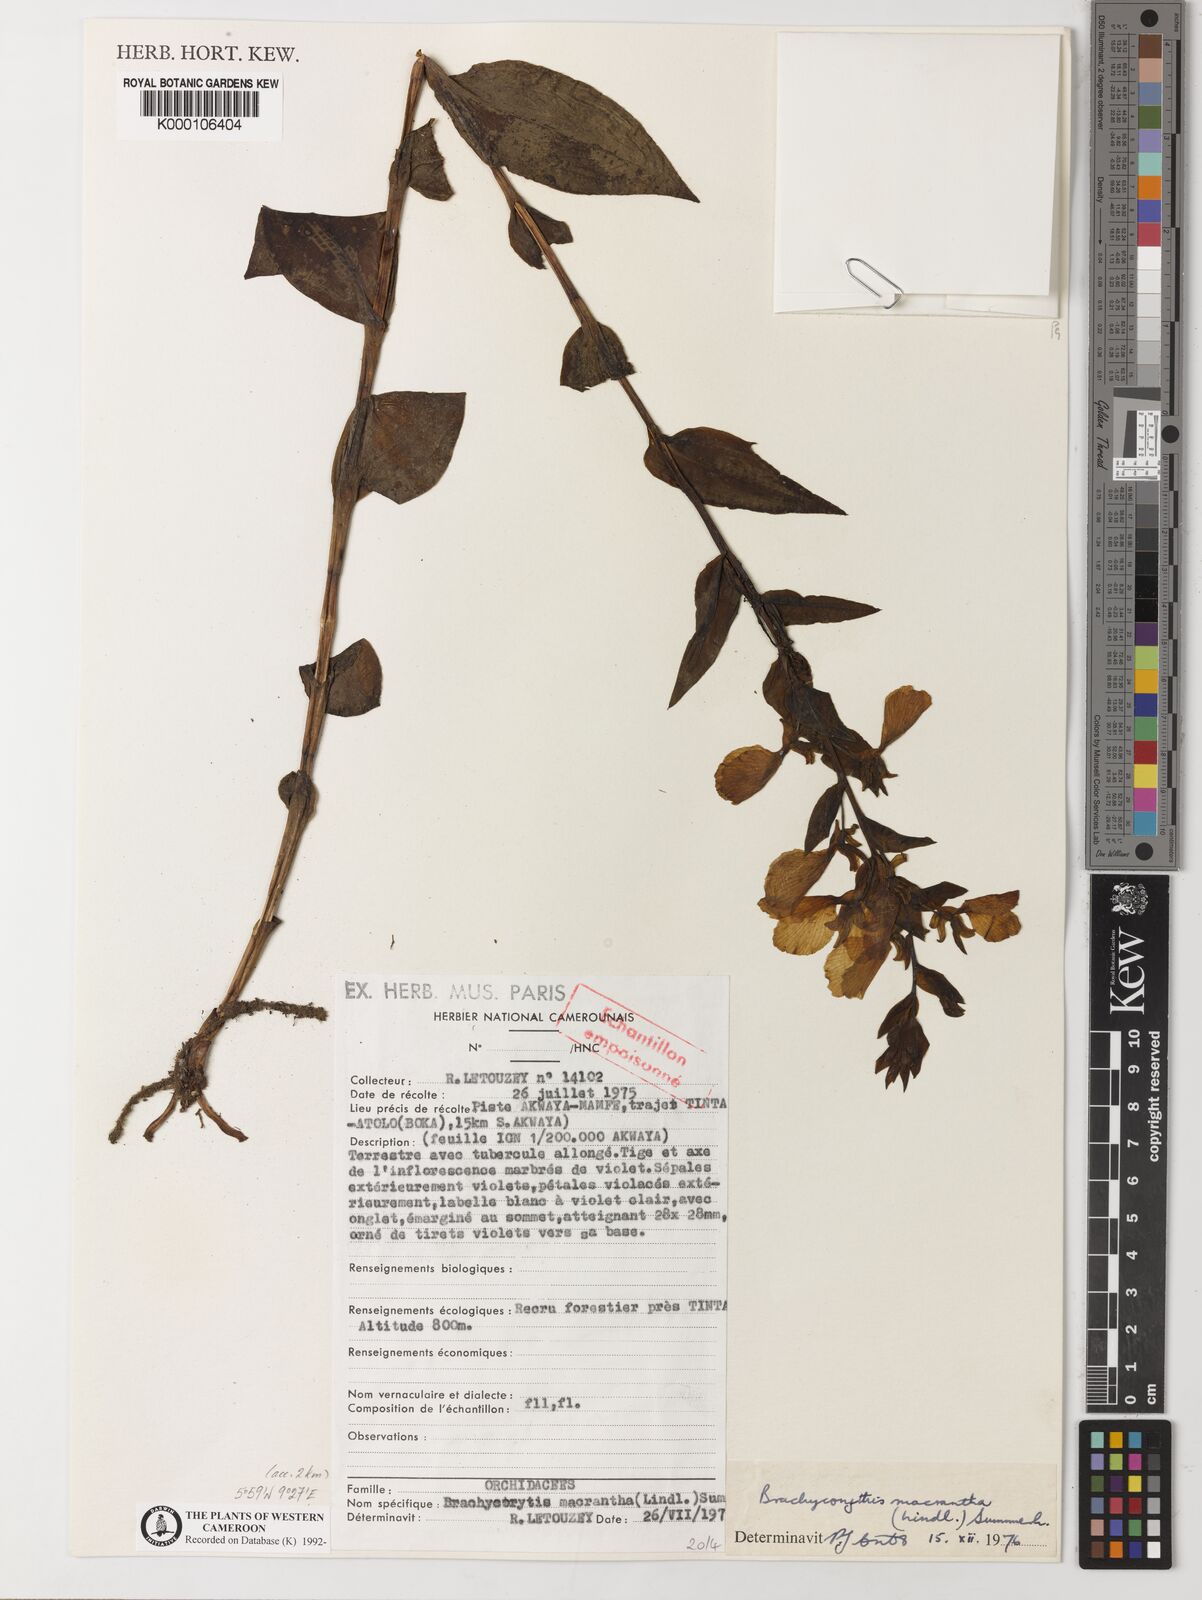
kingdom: Plantae
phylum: Tracheophyta
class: Liliopsida
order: Asparagales
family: Orchidaceae
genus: Brachycorythis
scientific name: Brachycorythis macrantha
